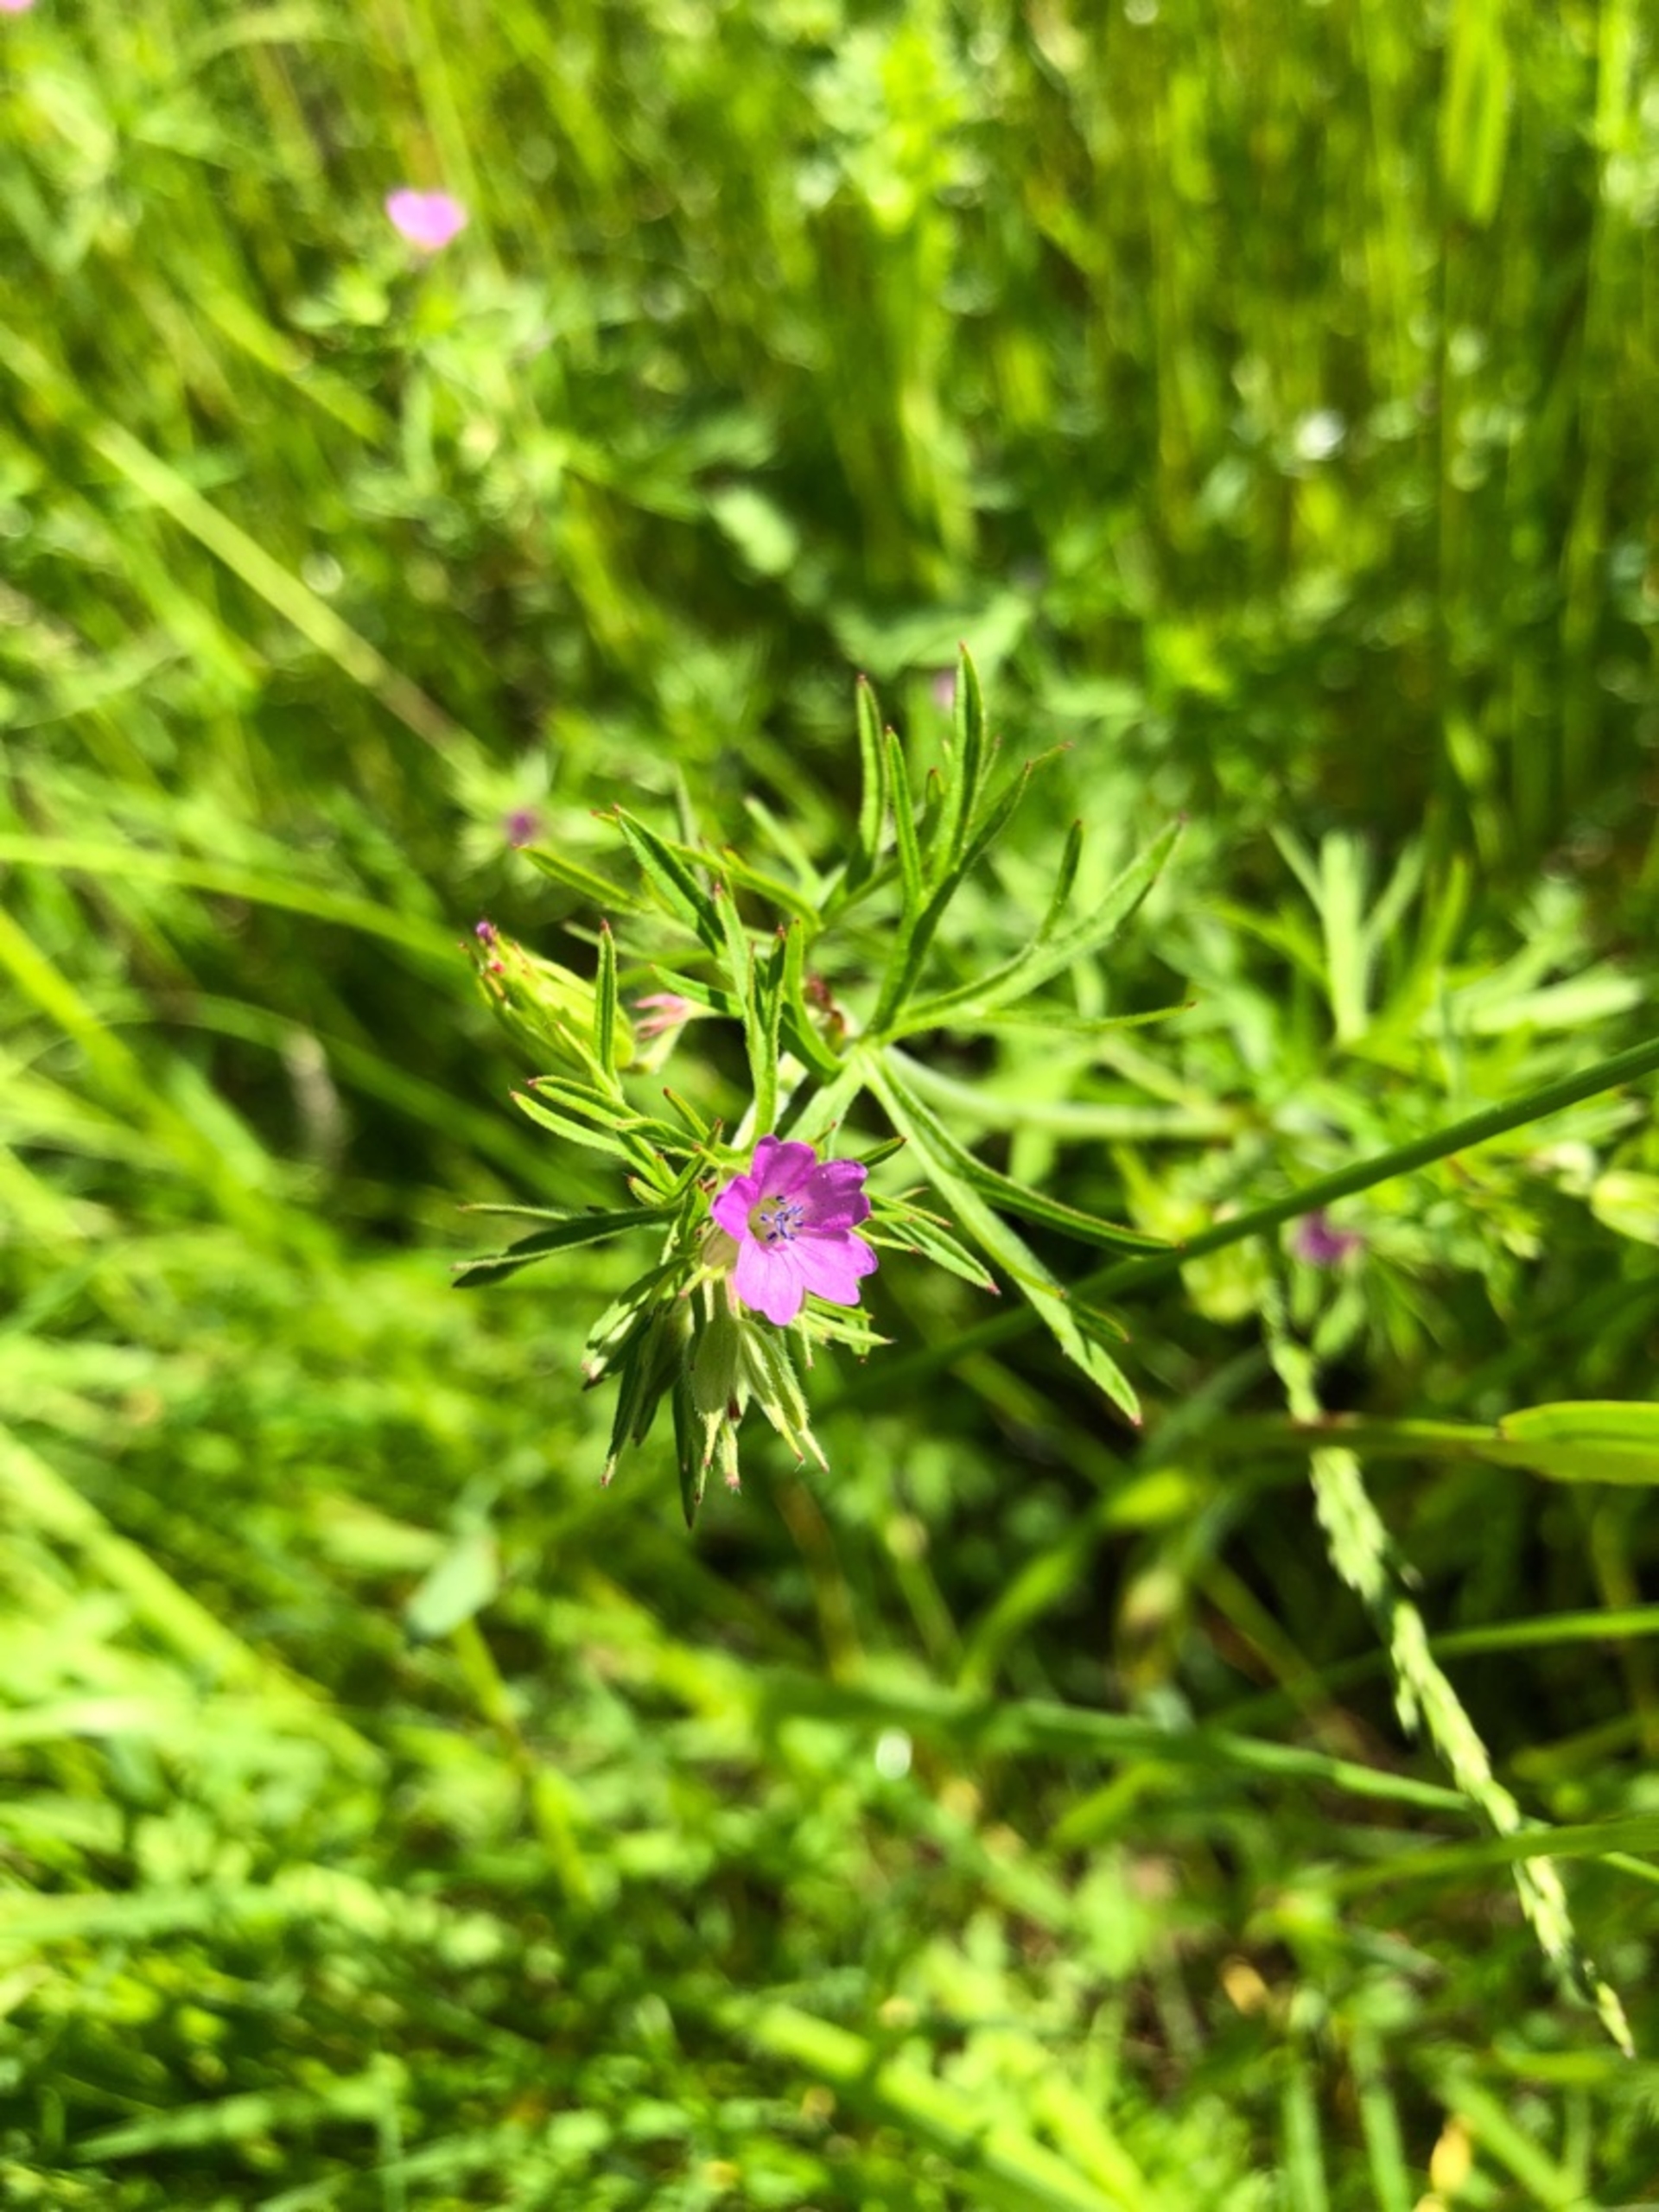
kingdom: Plantae
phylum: Tracheophyta
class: Magnoliopsida
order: Geraniales
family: Geraniaceae
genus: Geranium
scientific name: Geranium dissectum
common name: Kløftet storkenæb
